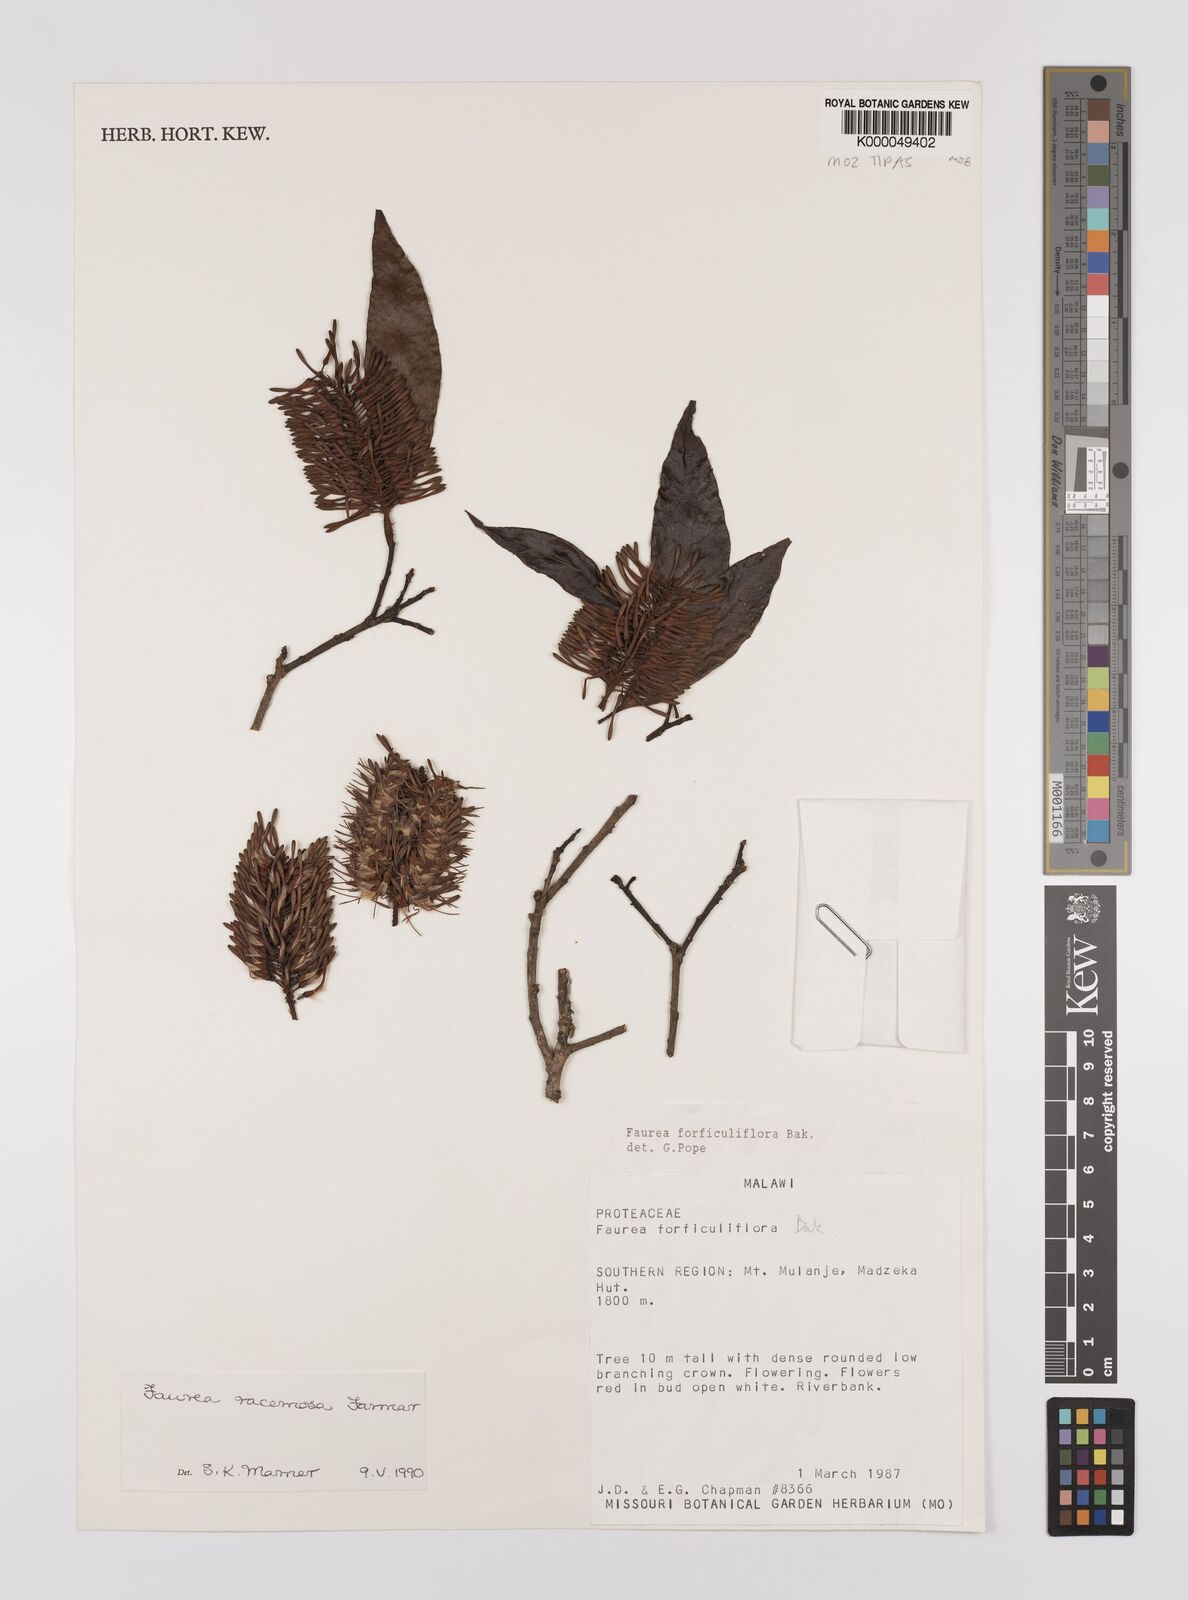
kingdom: Plantae
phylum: Tracheophyta
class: Magnoliopsida
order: Proteales
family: Proteaceae
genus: Faurea
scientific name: Faurea racemosa
